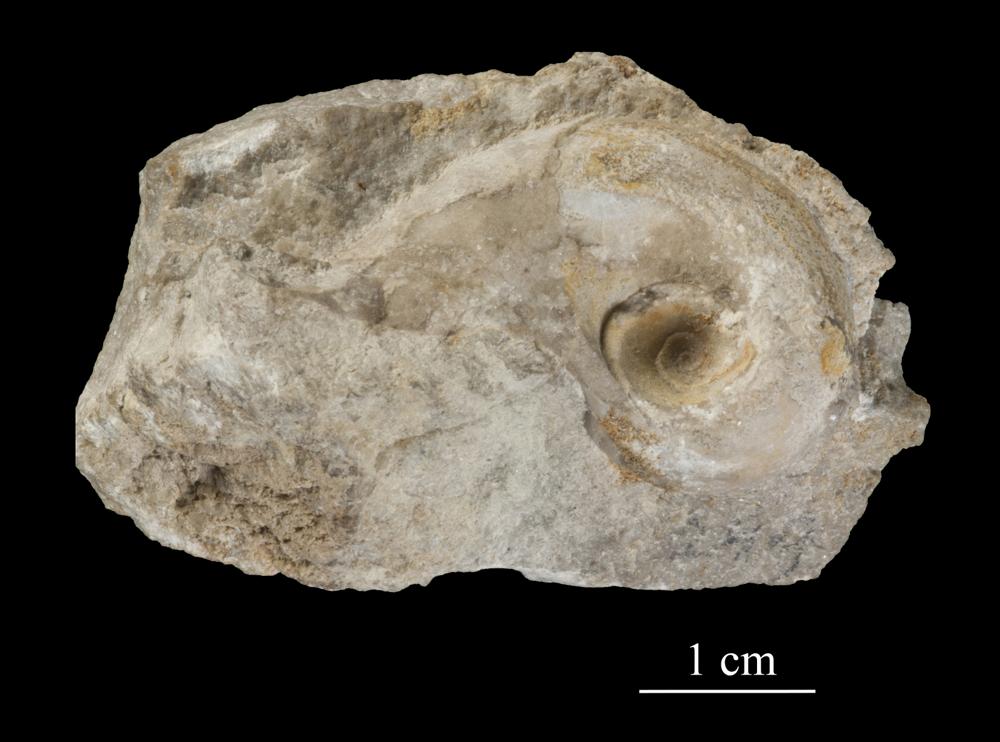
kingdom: Animalia
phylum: Mollusca
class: Gastropoda
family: Bucaniidae
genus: Salpingostoma
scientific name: Salpingostoma Bellerophon megalostoma
